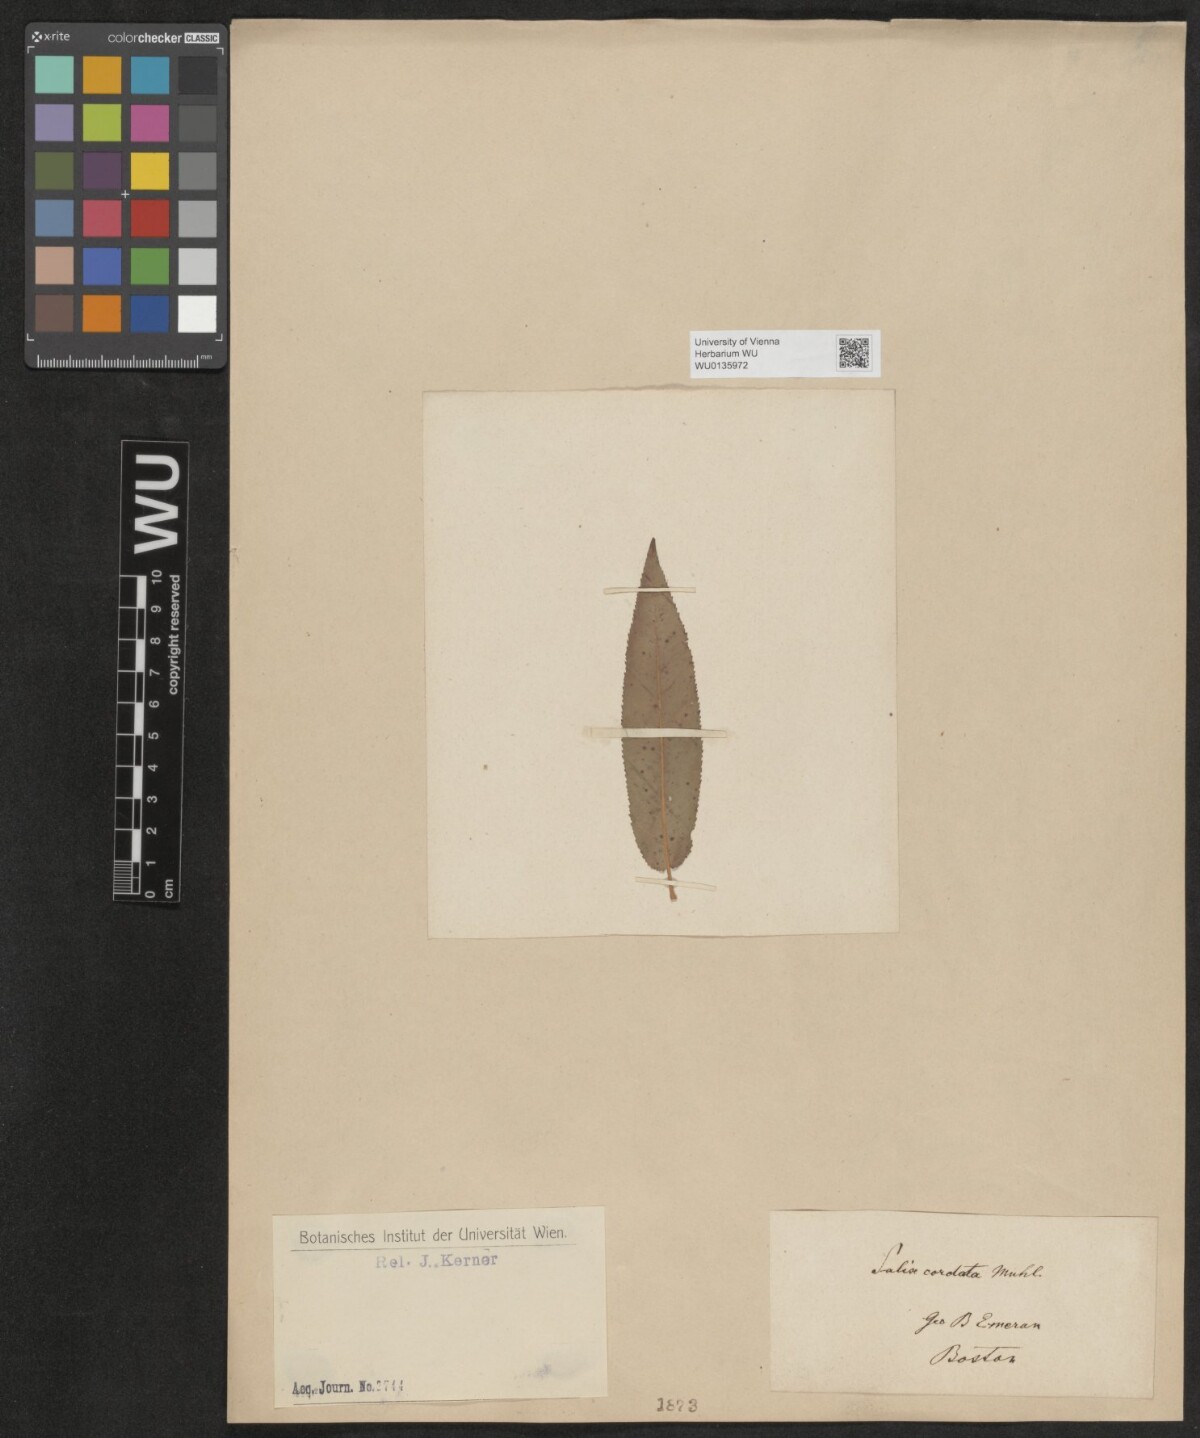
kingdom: Plantae
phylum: Tracheophyta
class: Magnoliopsida
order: Malpighiales
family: Salicaceae
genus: Salix
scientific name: Salix cordata
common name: Heart-leaf willow
